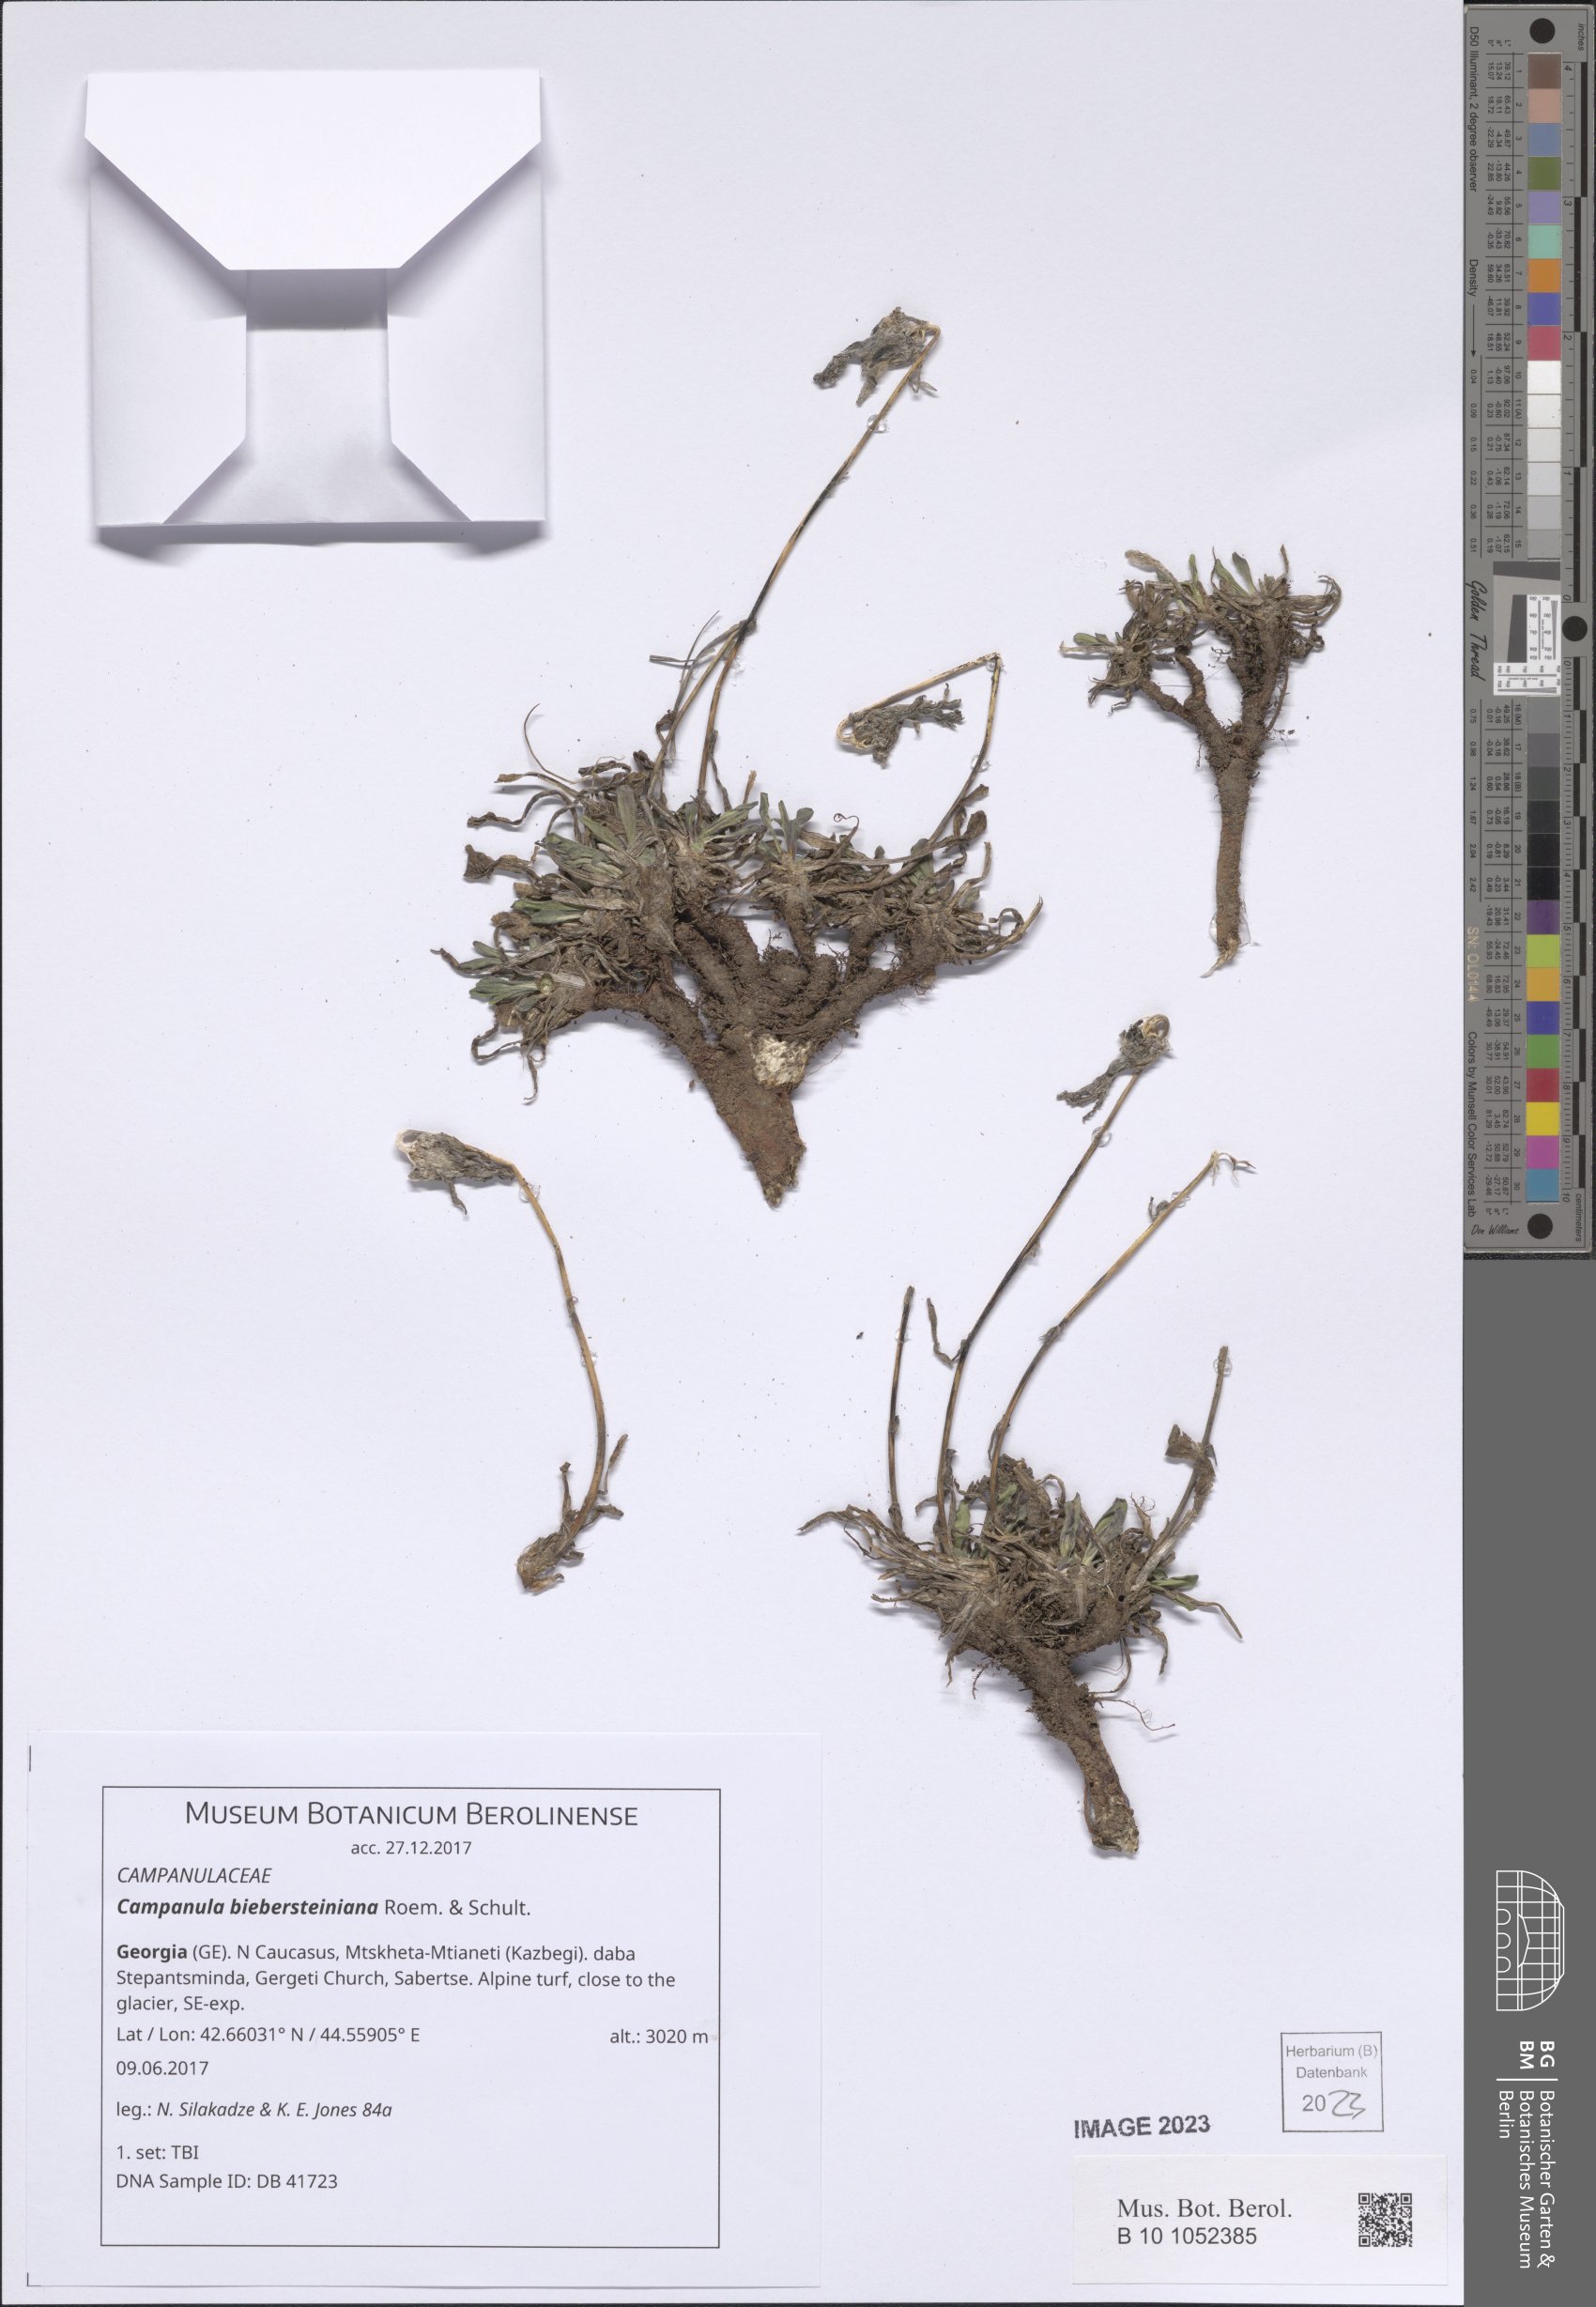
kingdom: Plantae
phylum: Tracheophyta
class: Magnoliopsida
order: Asterales
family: Campanulaceae
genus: Campanula
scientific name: Campanula tridentata
